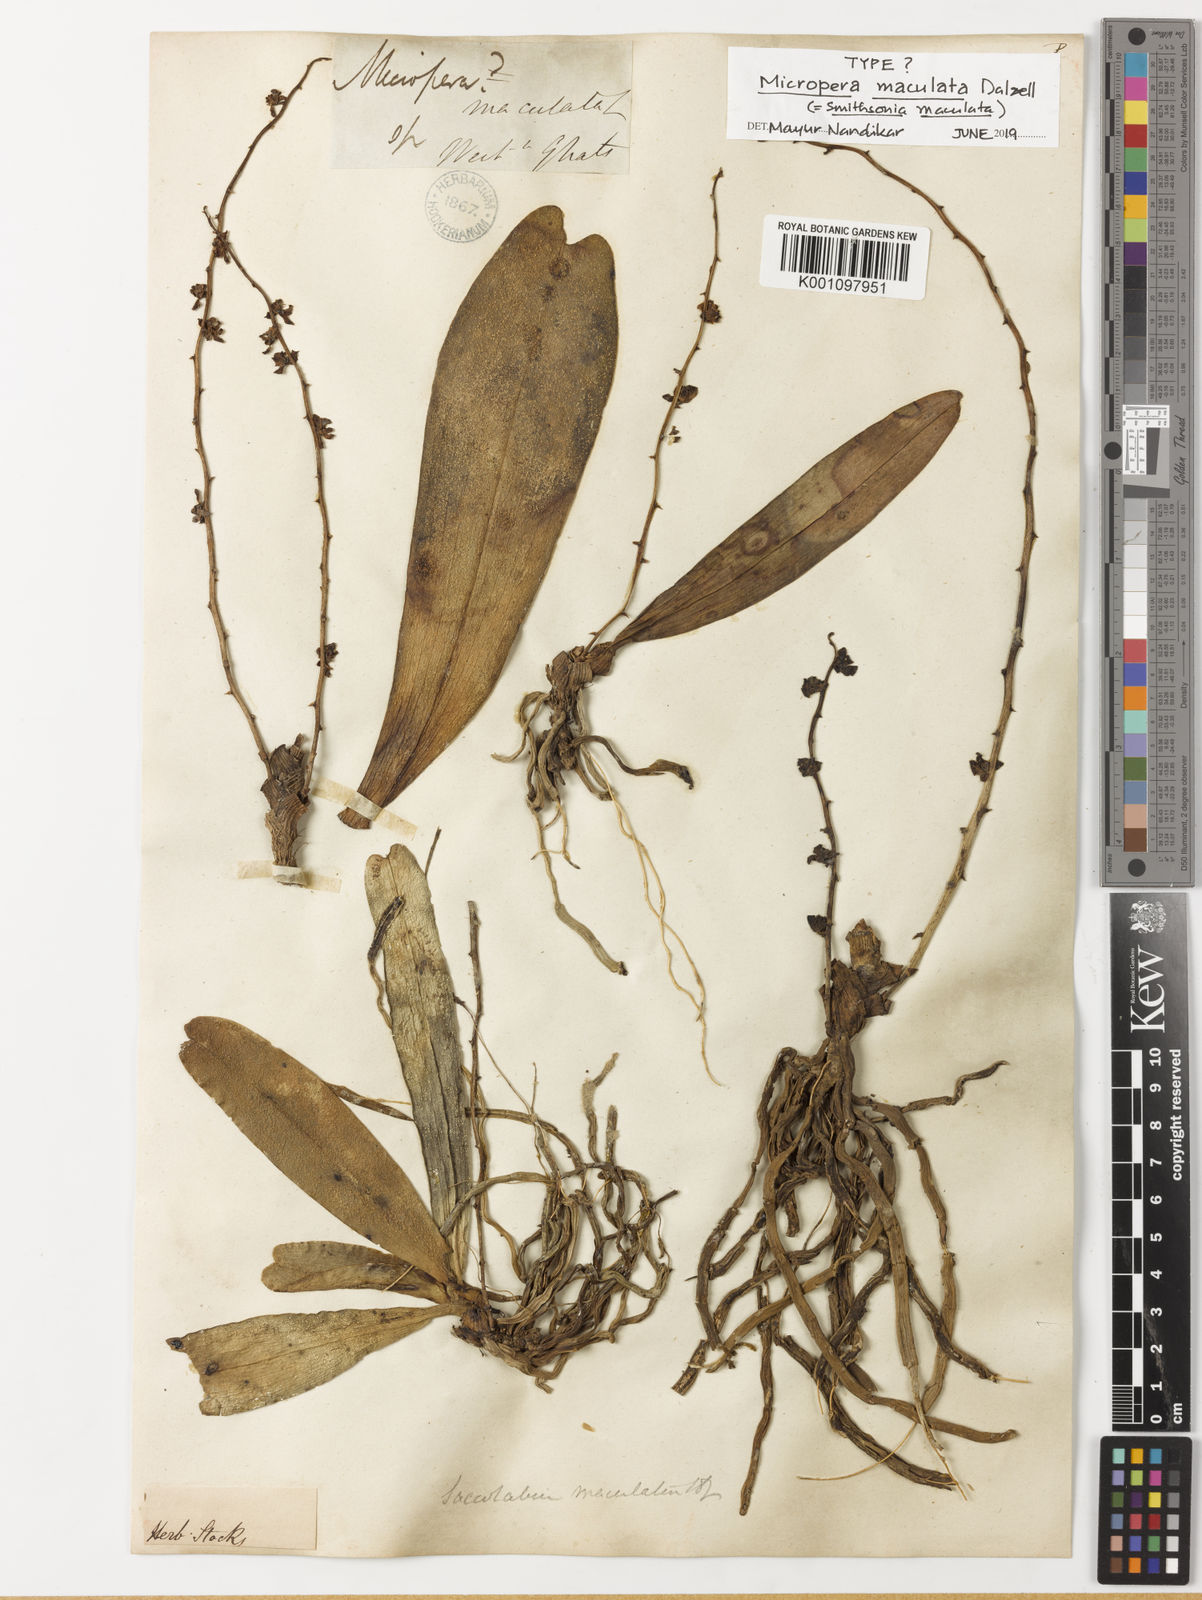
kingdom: Plantae
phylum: Tracheophyta
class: Liliopsida
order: Asparagales
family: Orchidaceae
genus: Smithsonia
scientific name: Smithsonia maculata
